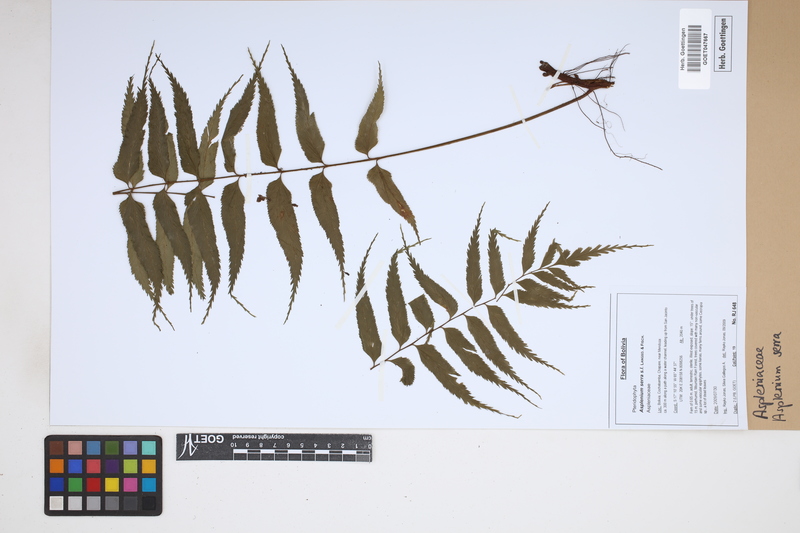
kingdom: Plantae
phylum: Tracheophyta
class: Polypodiopsida
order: Polypodiales
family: Aspleniaceae
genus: Asplenium
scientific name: Asplenium serra
